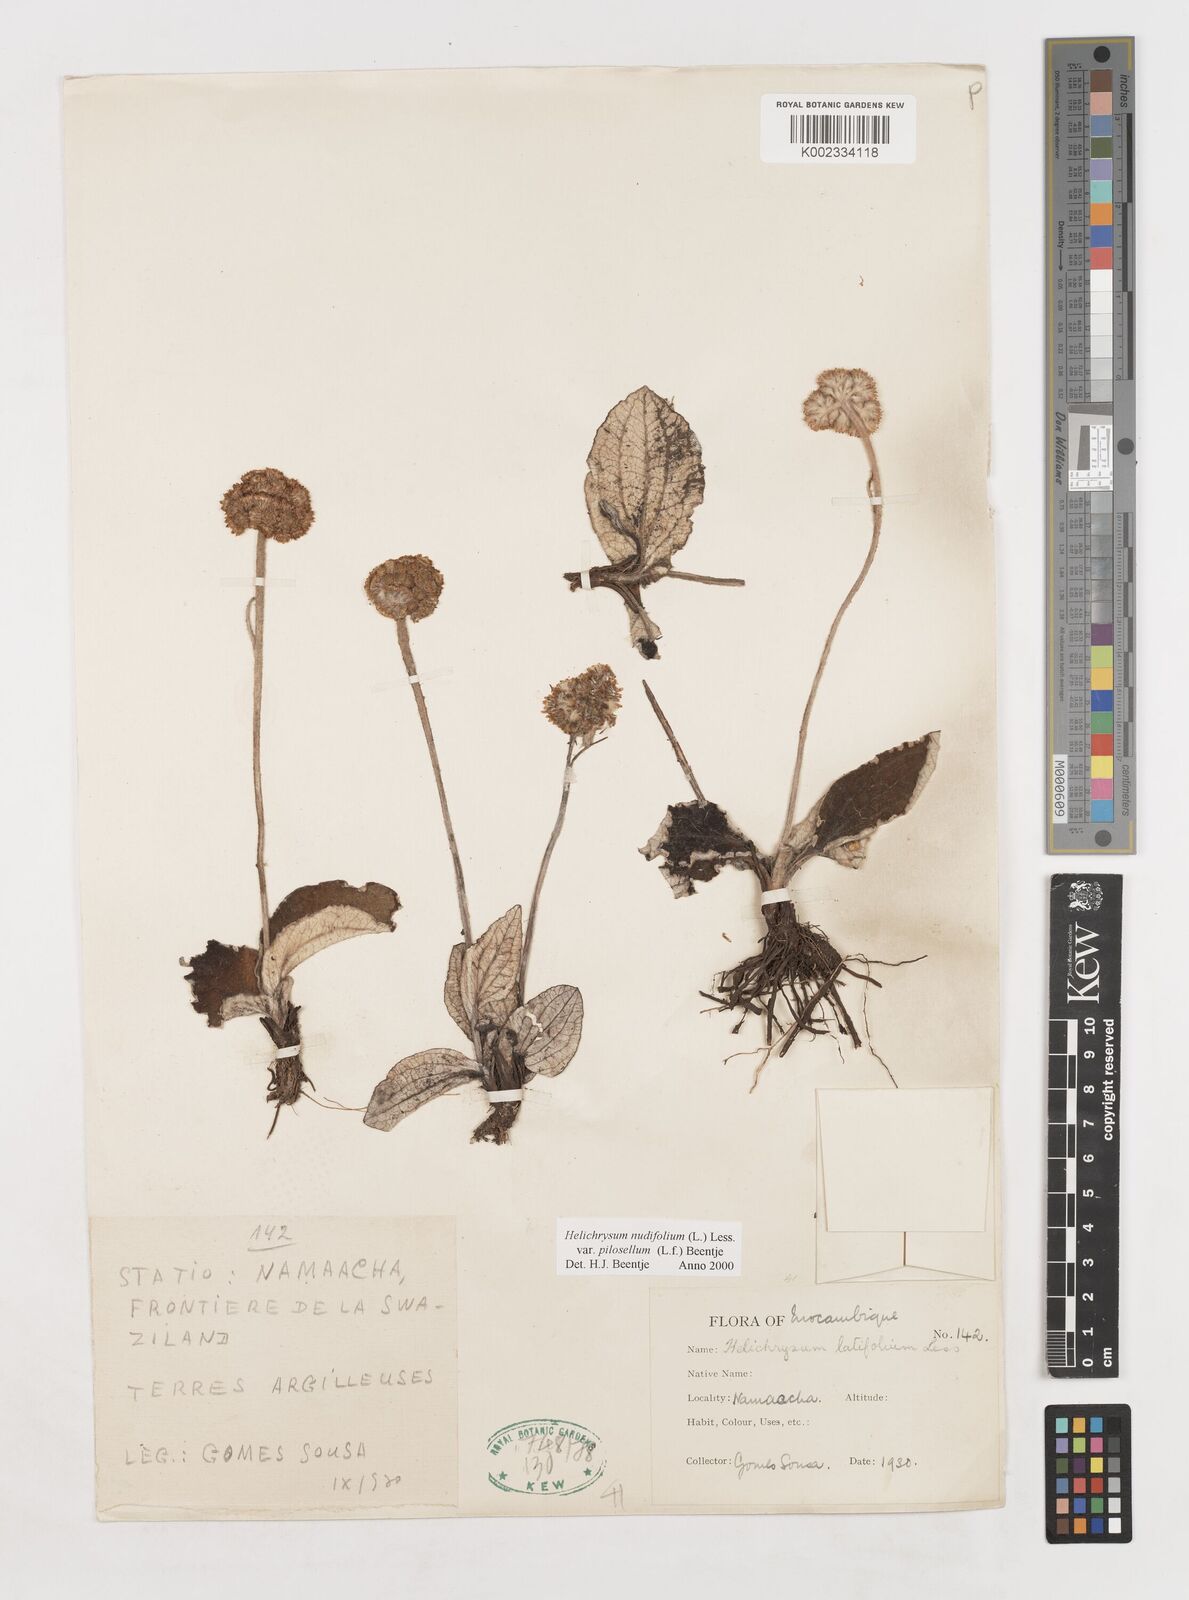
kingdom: Plantae
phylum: Tracheophyta
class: Magnoliopsida
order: Asterales
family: Asteraceae
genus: Helichrysum
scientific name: Helichrysum nudifolium
